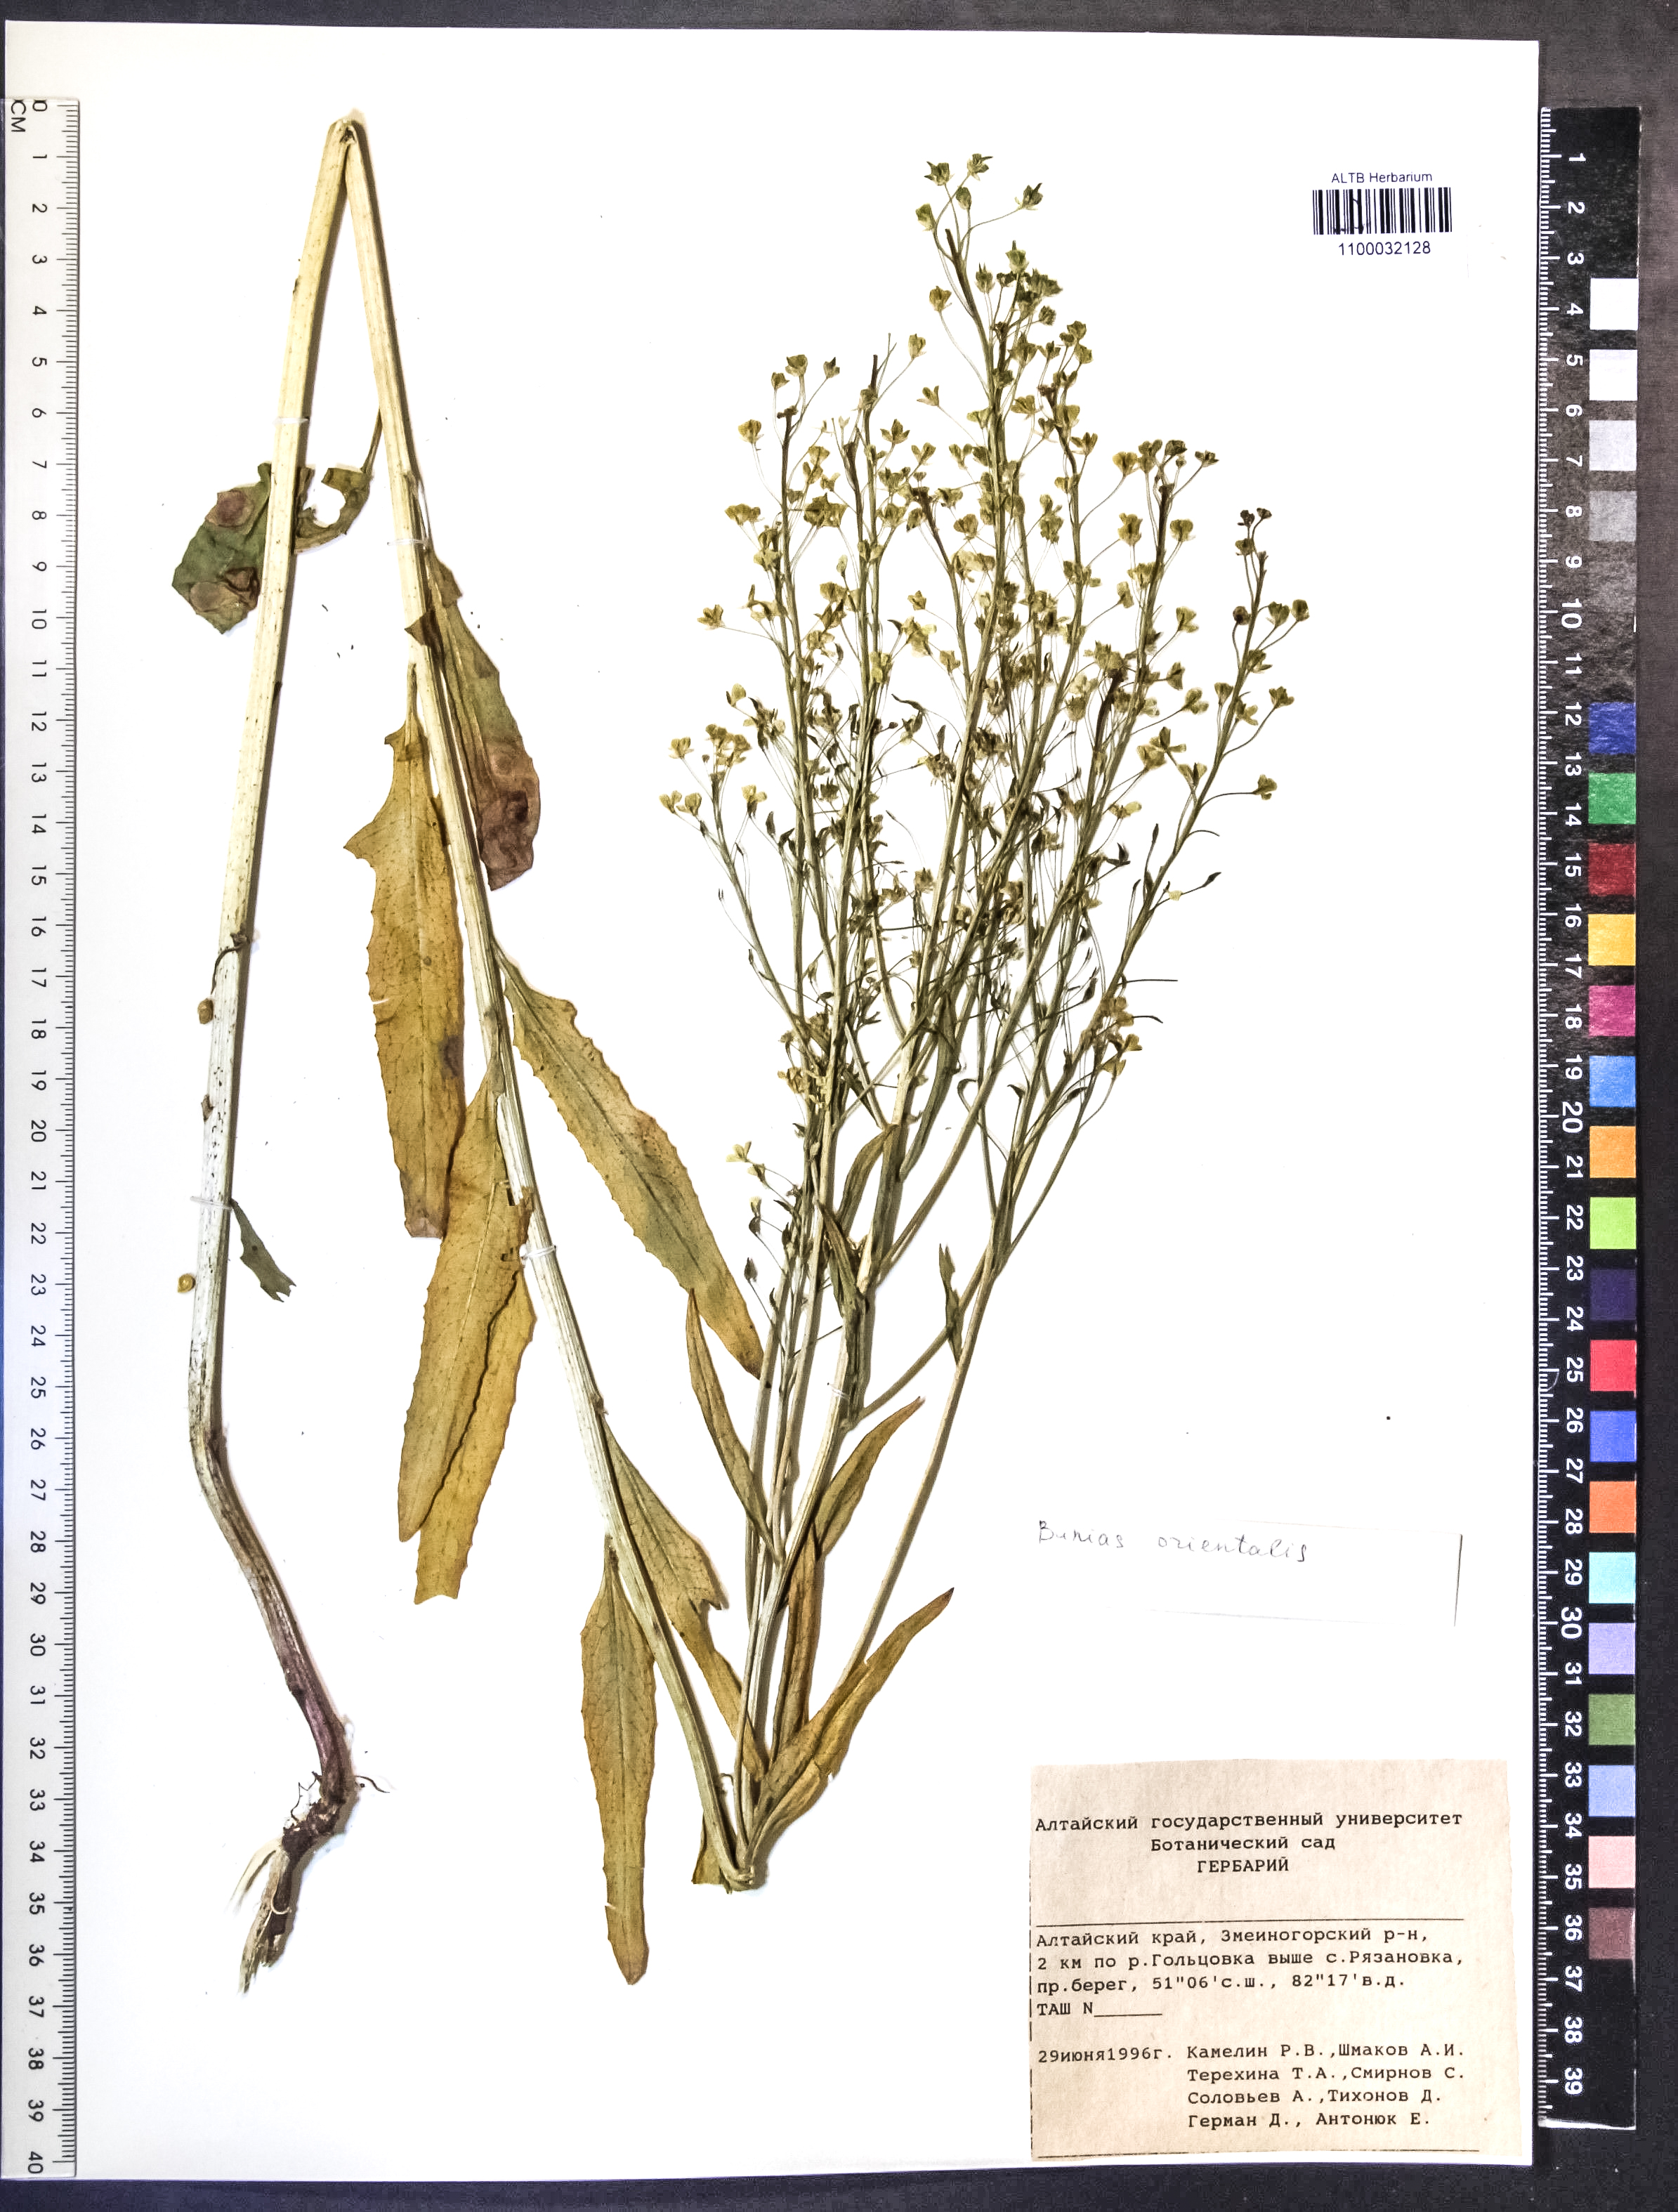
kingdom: Plantae
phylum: Tracheophyta
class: Magnoliopsida
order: Brassicales
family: Brassicaceae
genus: Bunias
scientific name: Bunias orientalis
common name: Warty-cabbage
